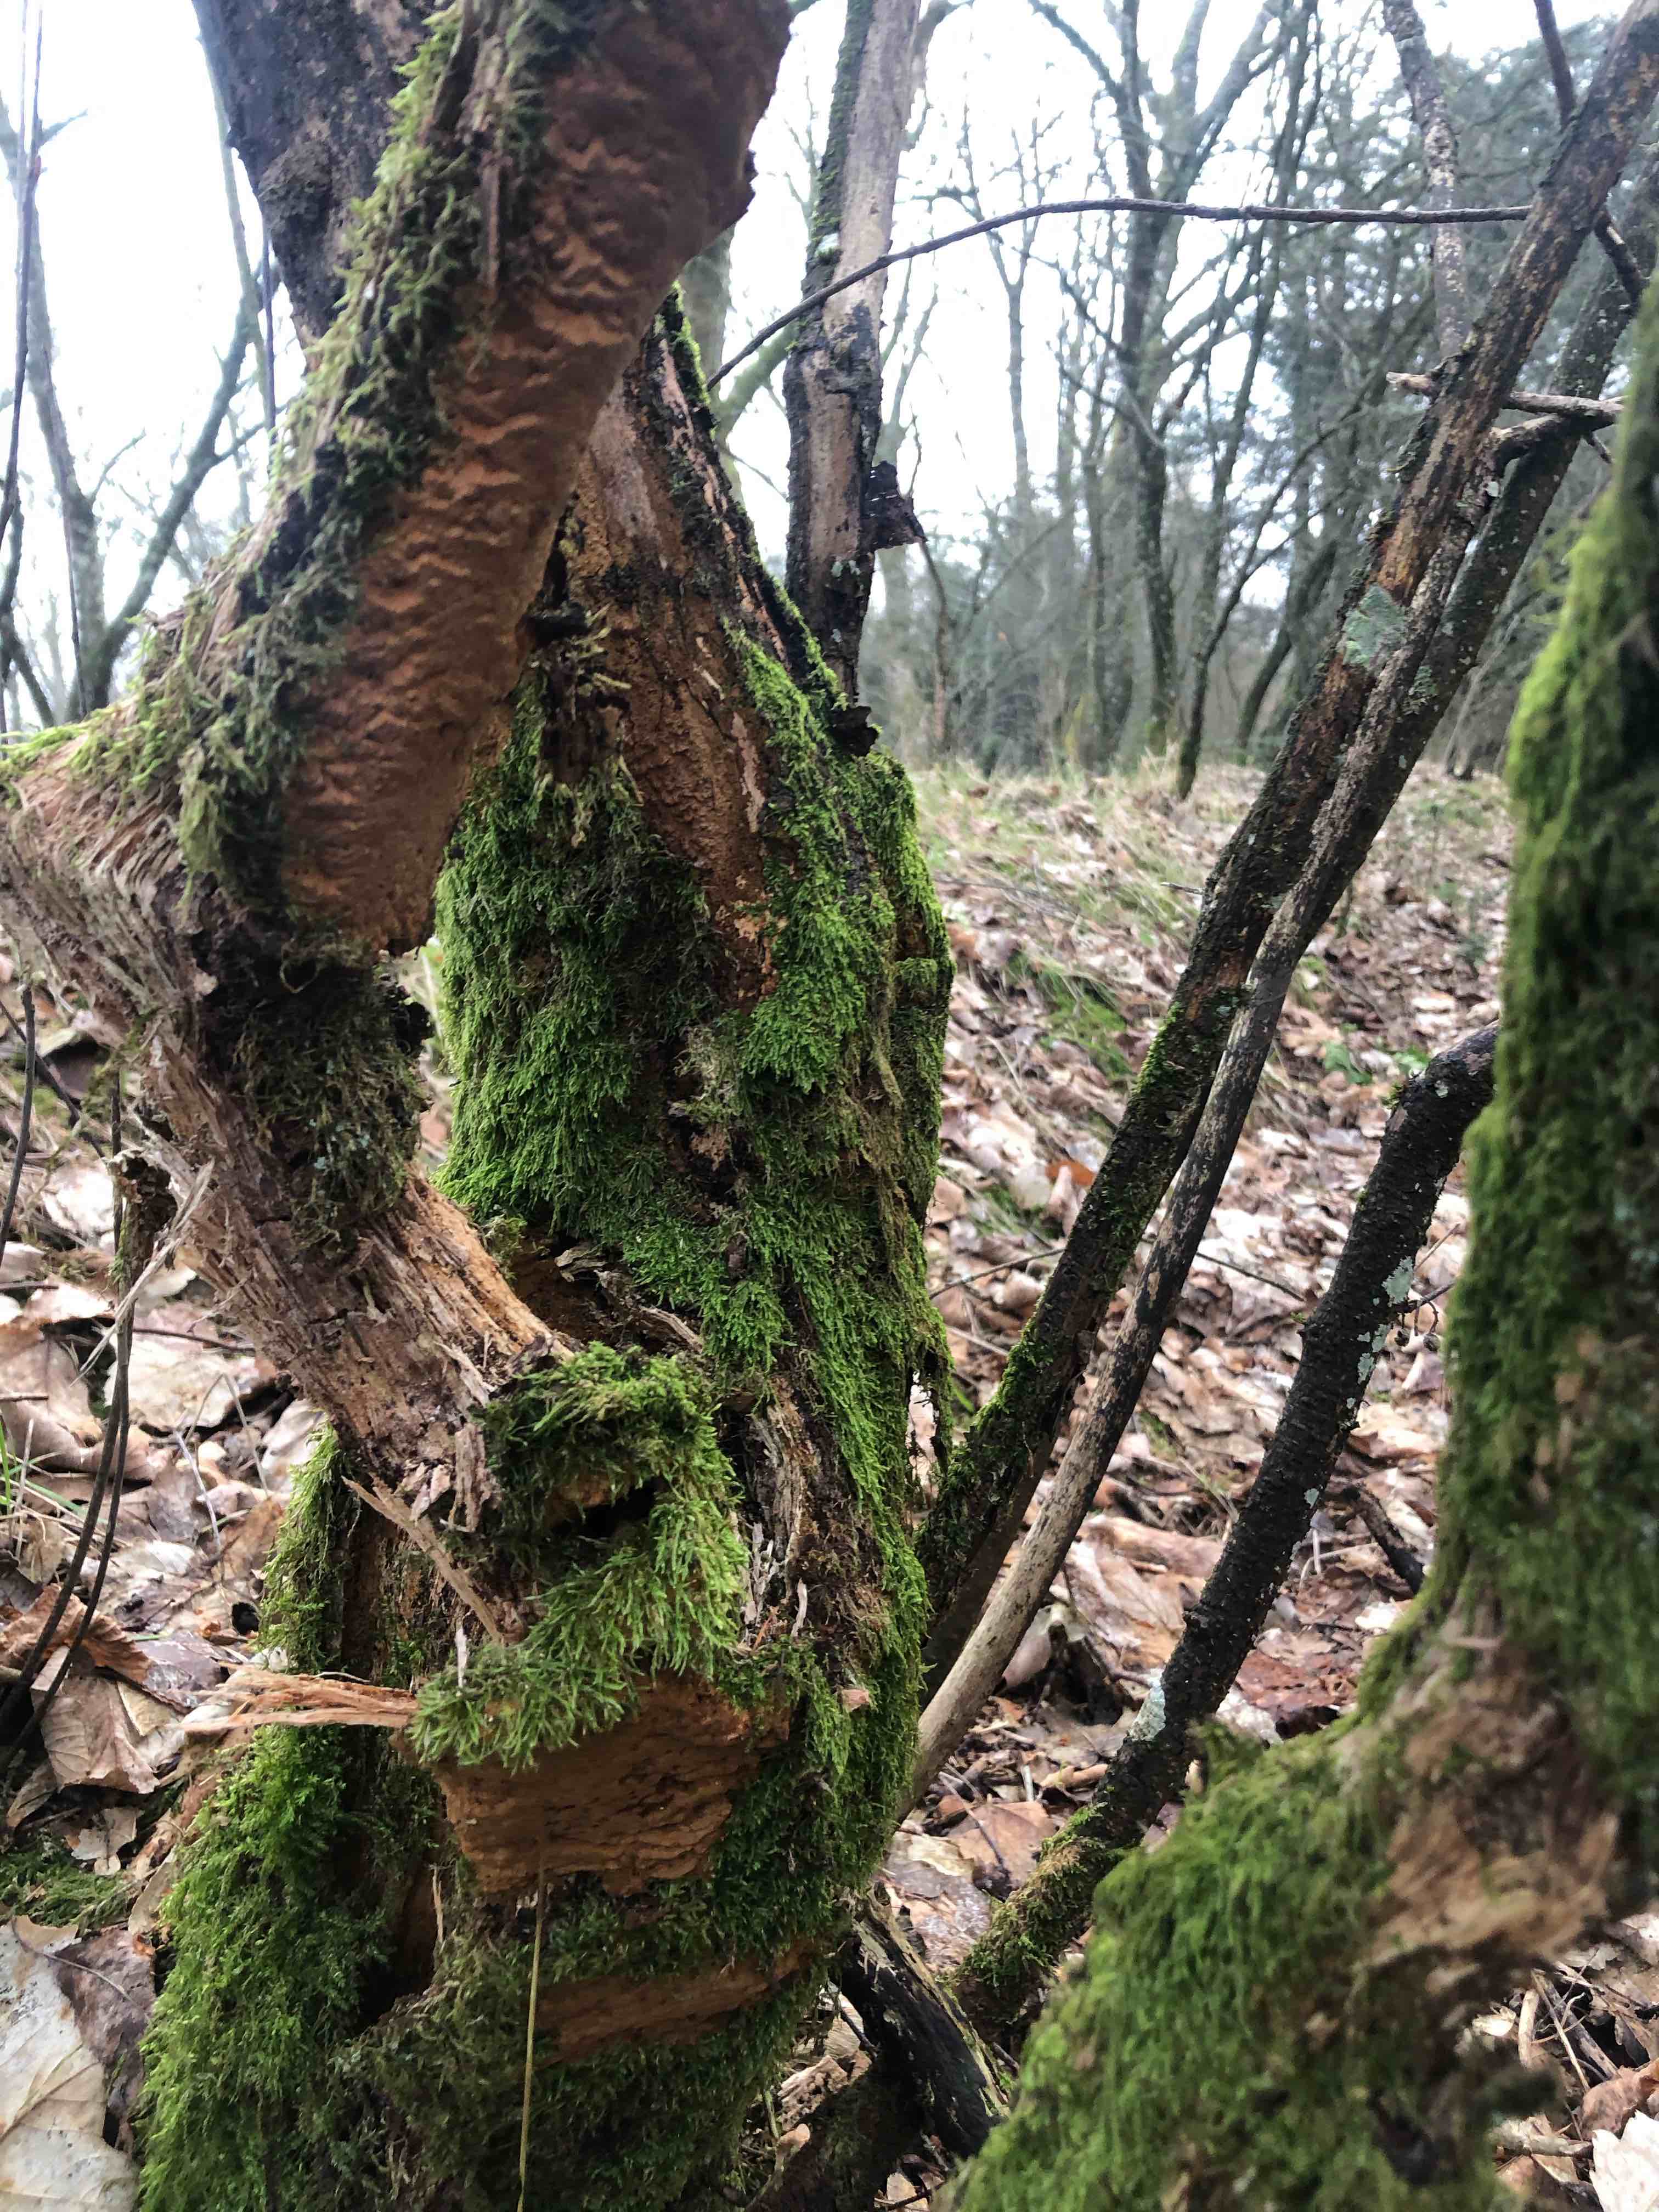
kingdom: Fungi
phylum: Basidiomycota
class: Agaricomycetes
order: Hymenochaetales
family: Hymenochaetaceae
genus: Fuscoporia
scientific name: Fuscoporia ferrea
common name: skorpe-ildporesvamp
